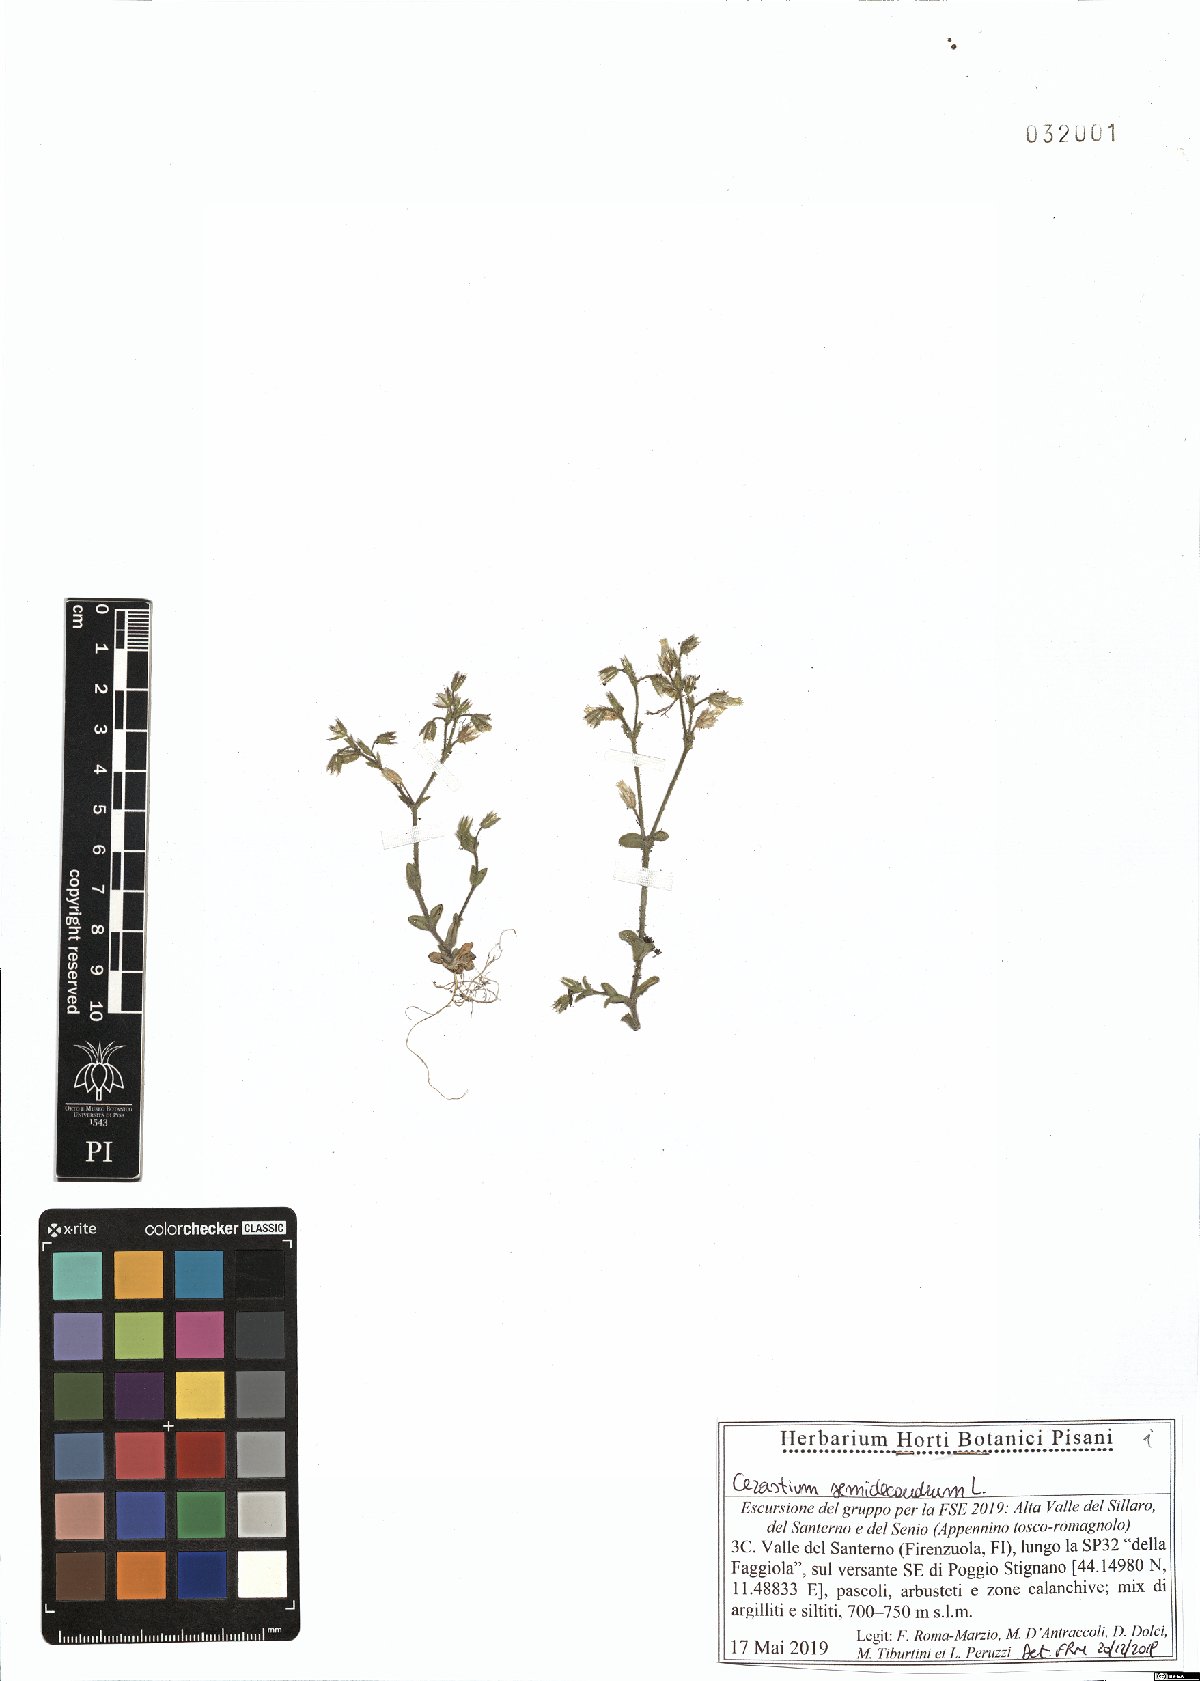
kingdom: Plantae
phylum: Tracheophyta
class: Magnoliopsida
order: Caryophyllales
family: Caryophyllaceae
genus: Cerastium
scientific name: Cerastium semidecandrum
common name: Little mouse-ear
